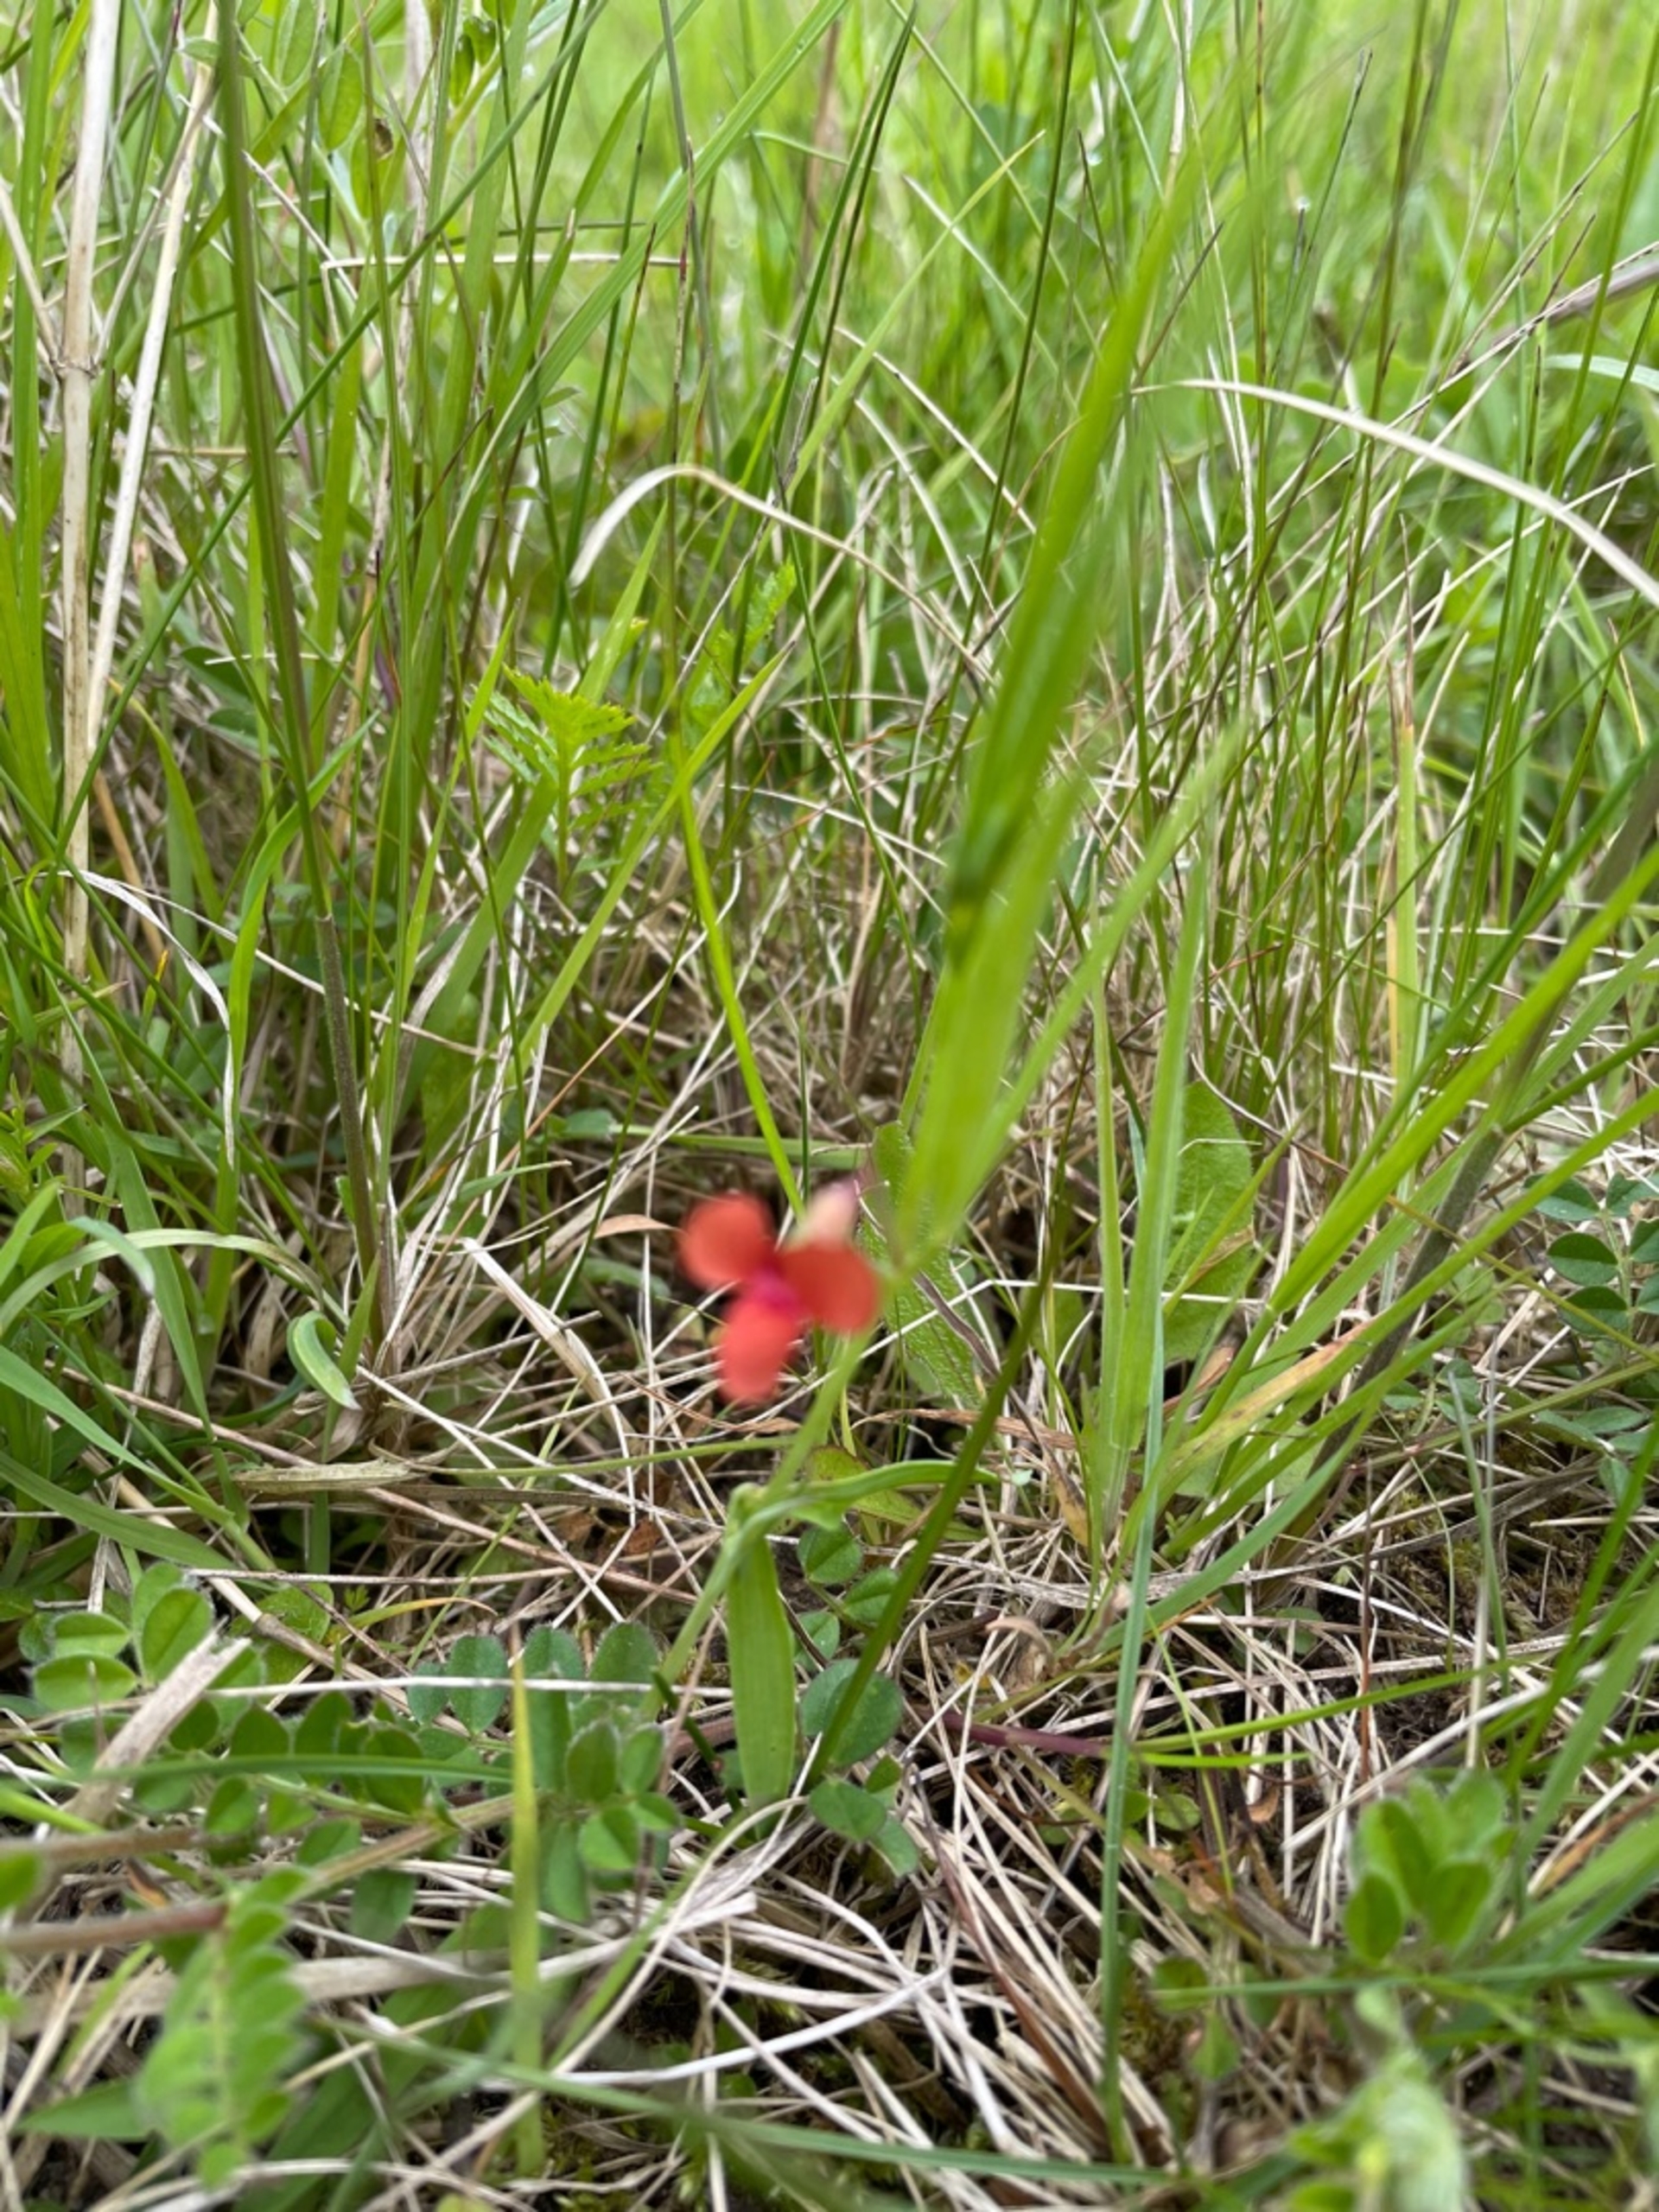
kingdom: Plantae
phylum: Tracheophyta
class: Magnoliopsida
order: Fabales
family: Fabaceae
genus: Lathyrus
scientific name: Lathyrus sphaericus
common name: Enblomstret fladbælg
